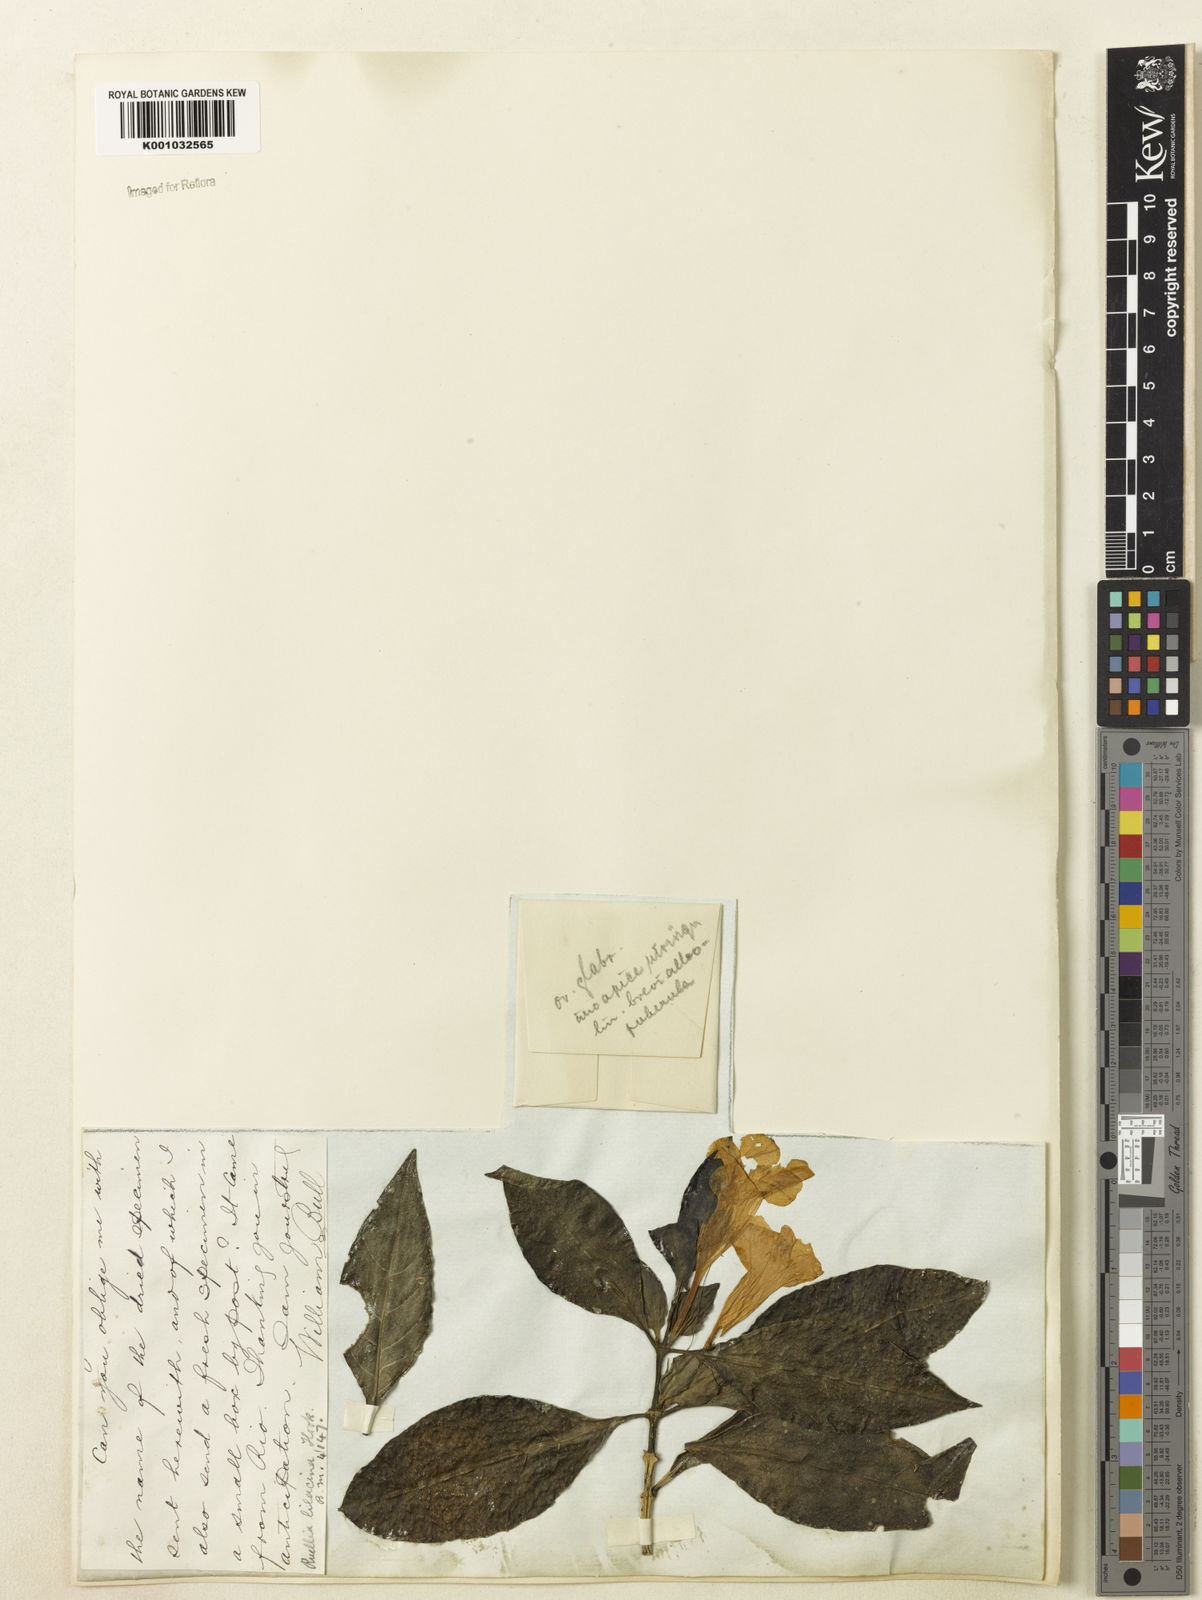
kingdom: Plantae
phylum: Tracheophyta
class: Magnoliopsida
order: Lamiales
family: Acanthaceae
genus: Ruellia
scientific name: Ruellia
